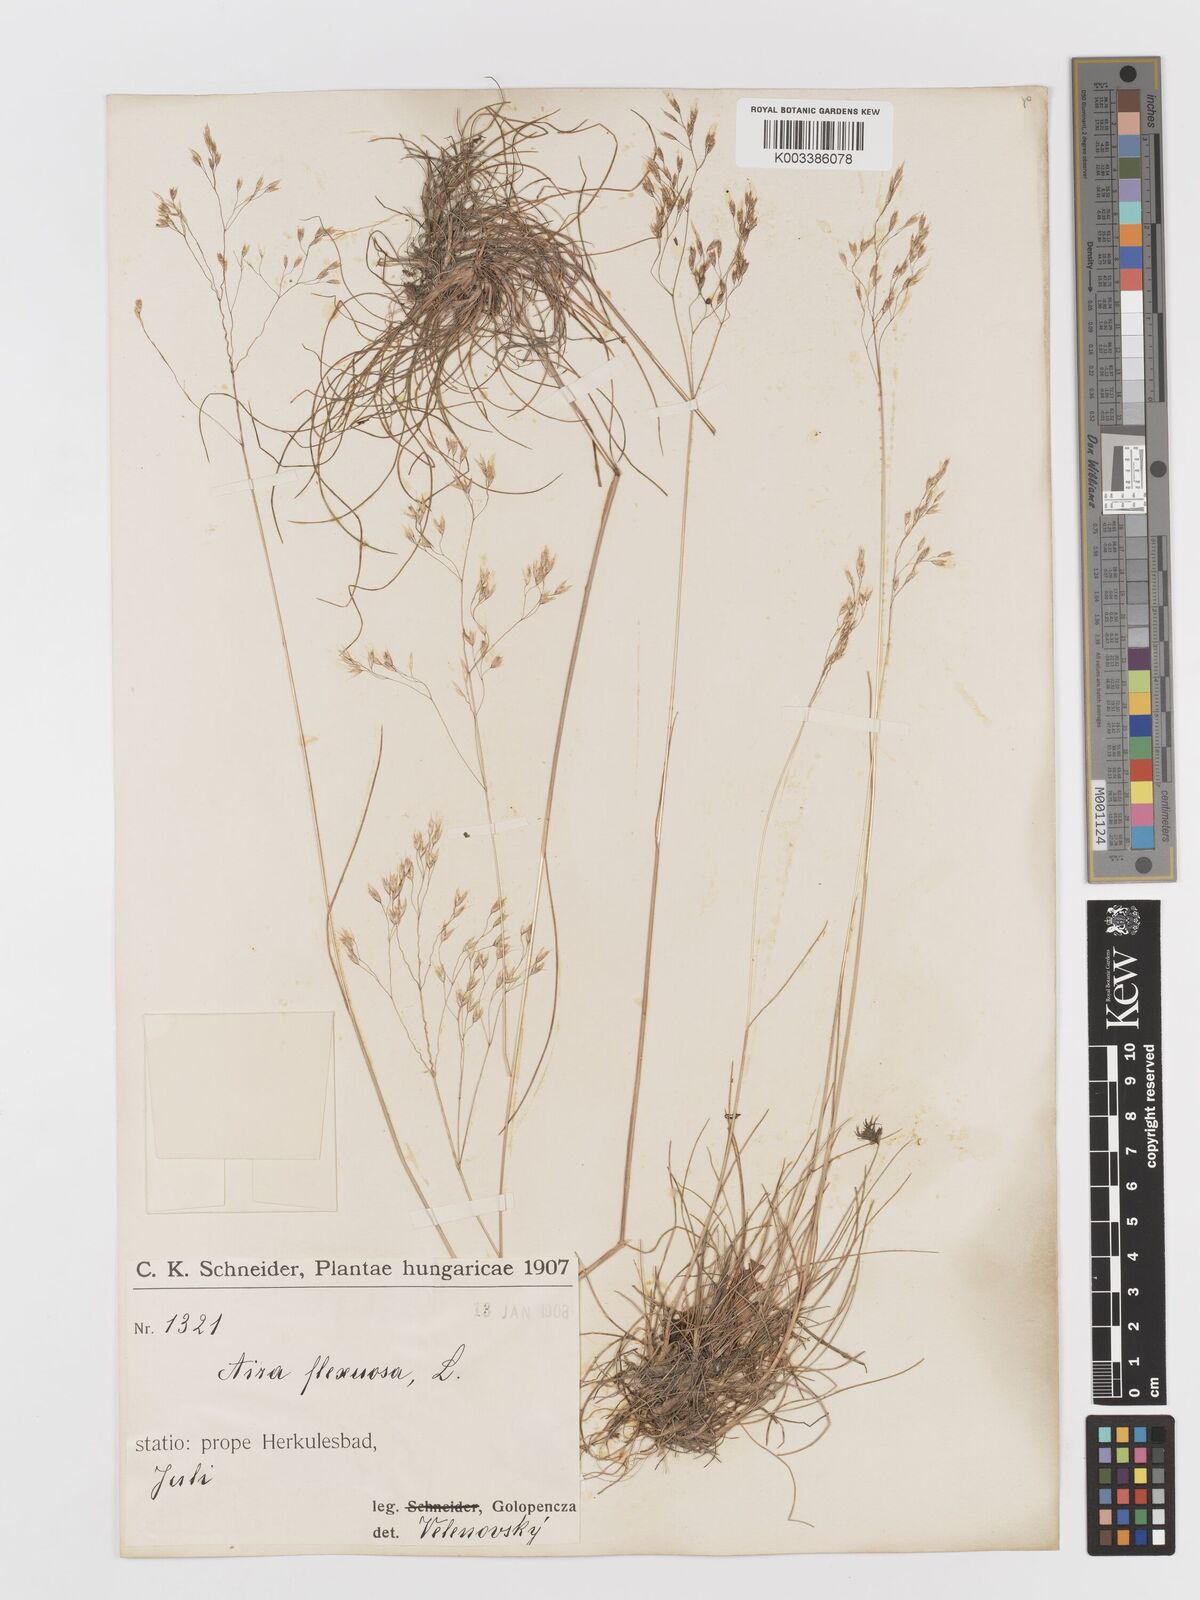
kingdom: Plantae
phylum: Tracheophyta
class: Liliopsida
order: Poales
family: Poaceae
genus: Avenella
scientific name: Avenella flexuosa
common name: Wavy hairgrass
